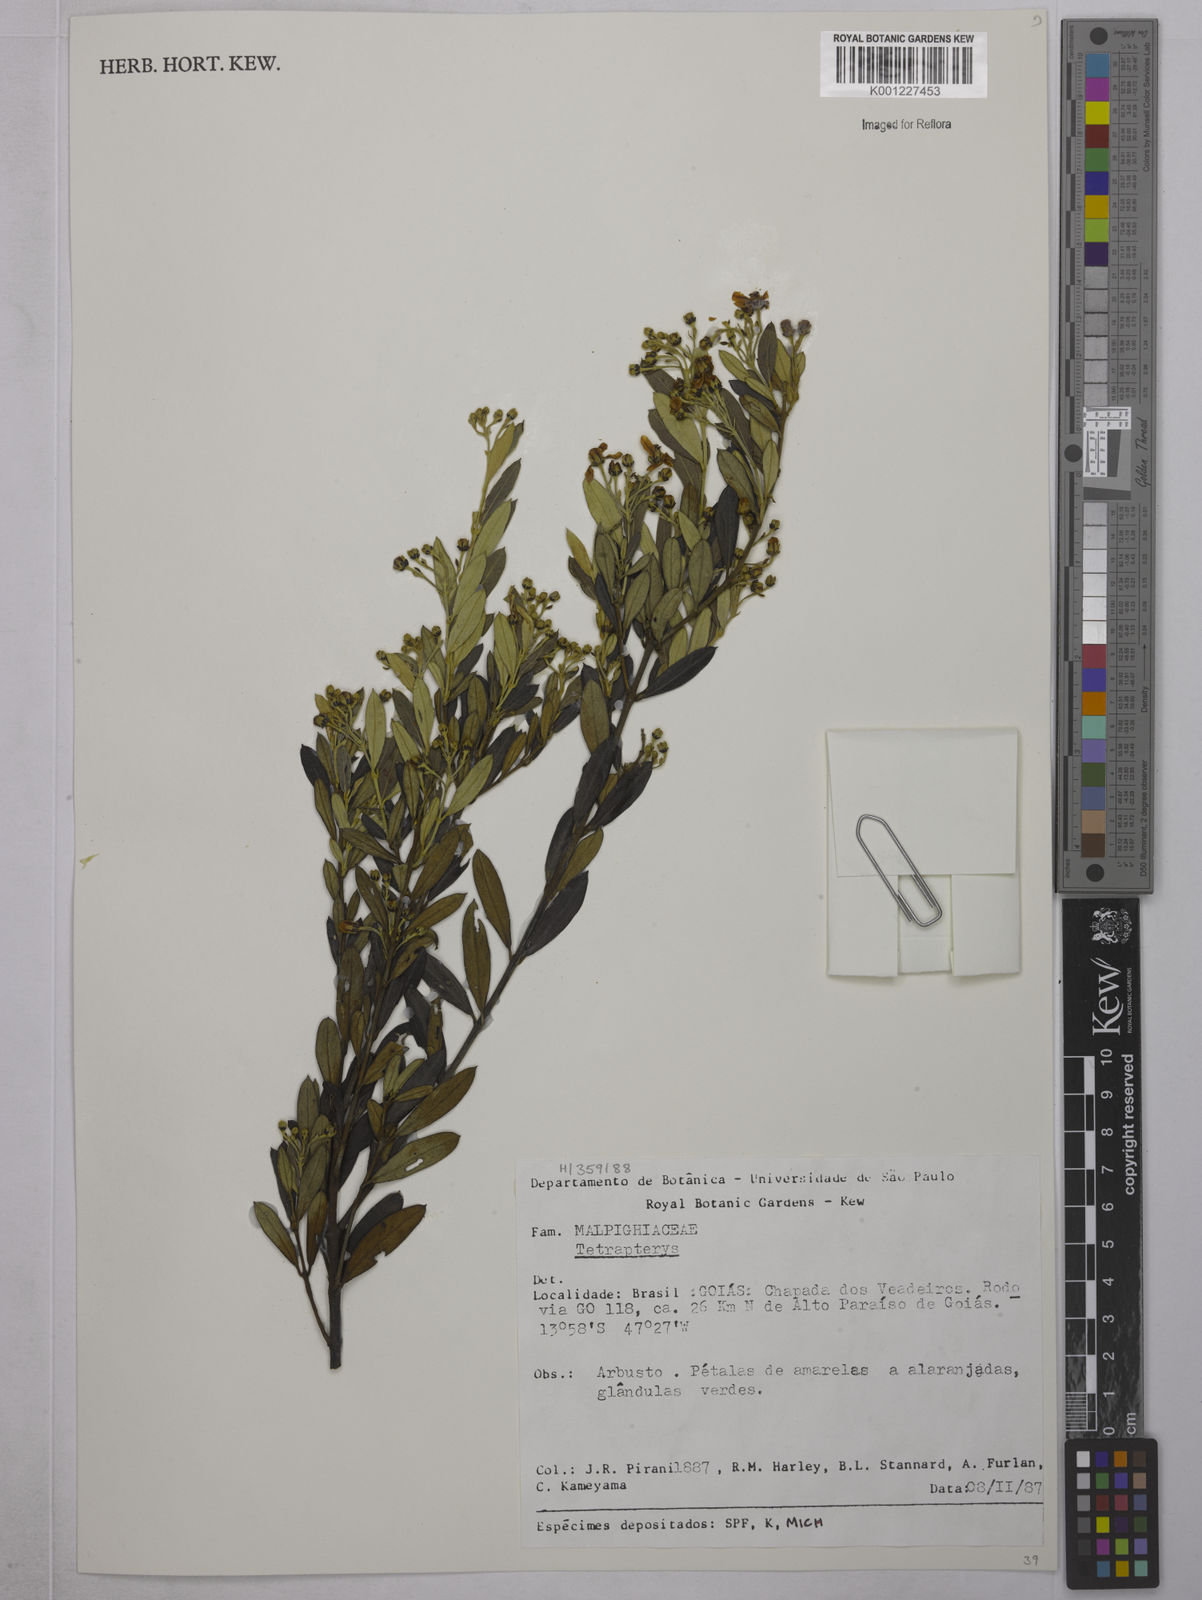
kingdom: Plantae
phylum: Tracheophyta
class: Magnoliopsida
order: Malpighiales
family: Malpighiaceae
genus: Tetrapterys
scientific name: Tetrapterys
